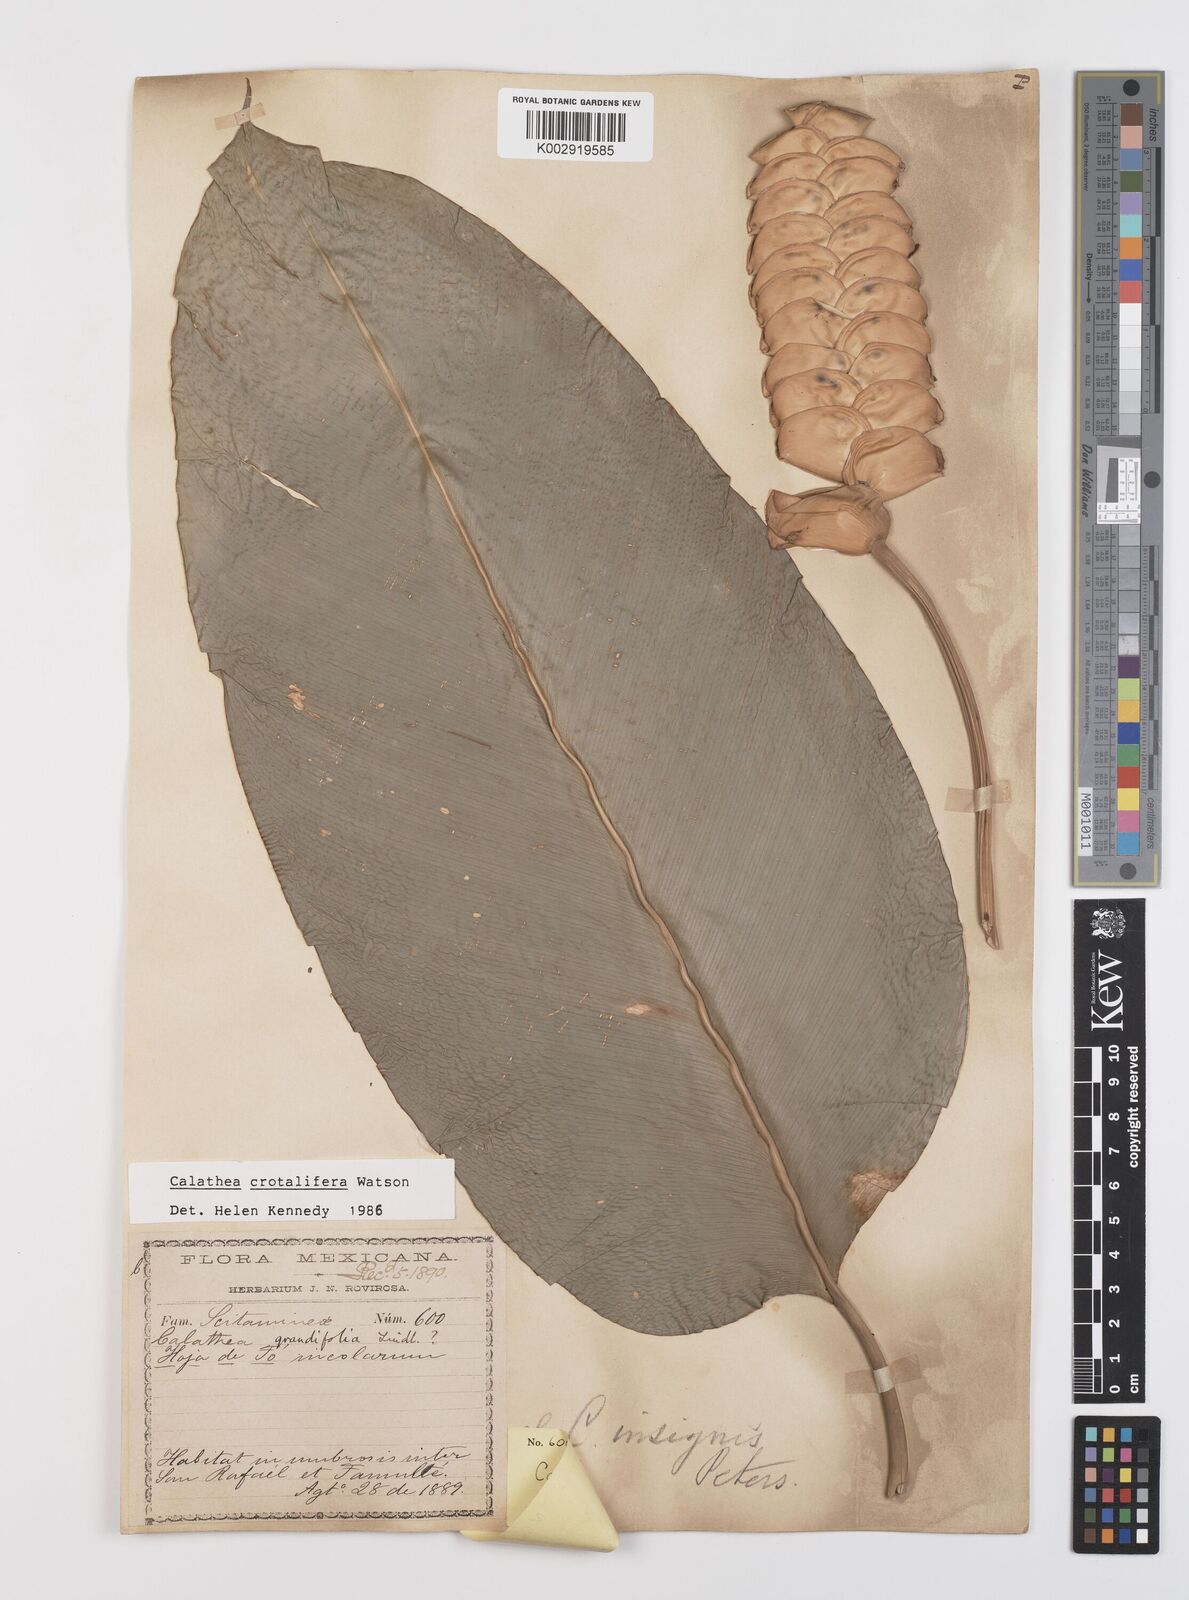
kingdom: Plantae
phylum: Tracheophyta
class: Liliopsida
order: Zingiberales
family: Marantaceae
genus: Calathea
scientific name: Calathea crotalifera
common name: Rattlesnake plant
